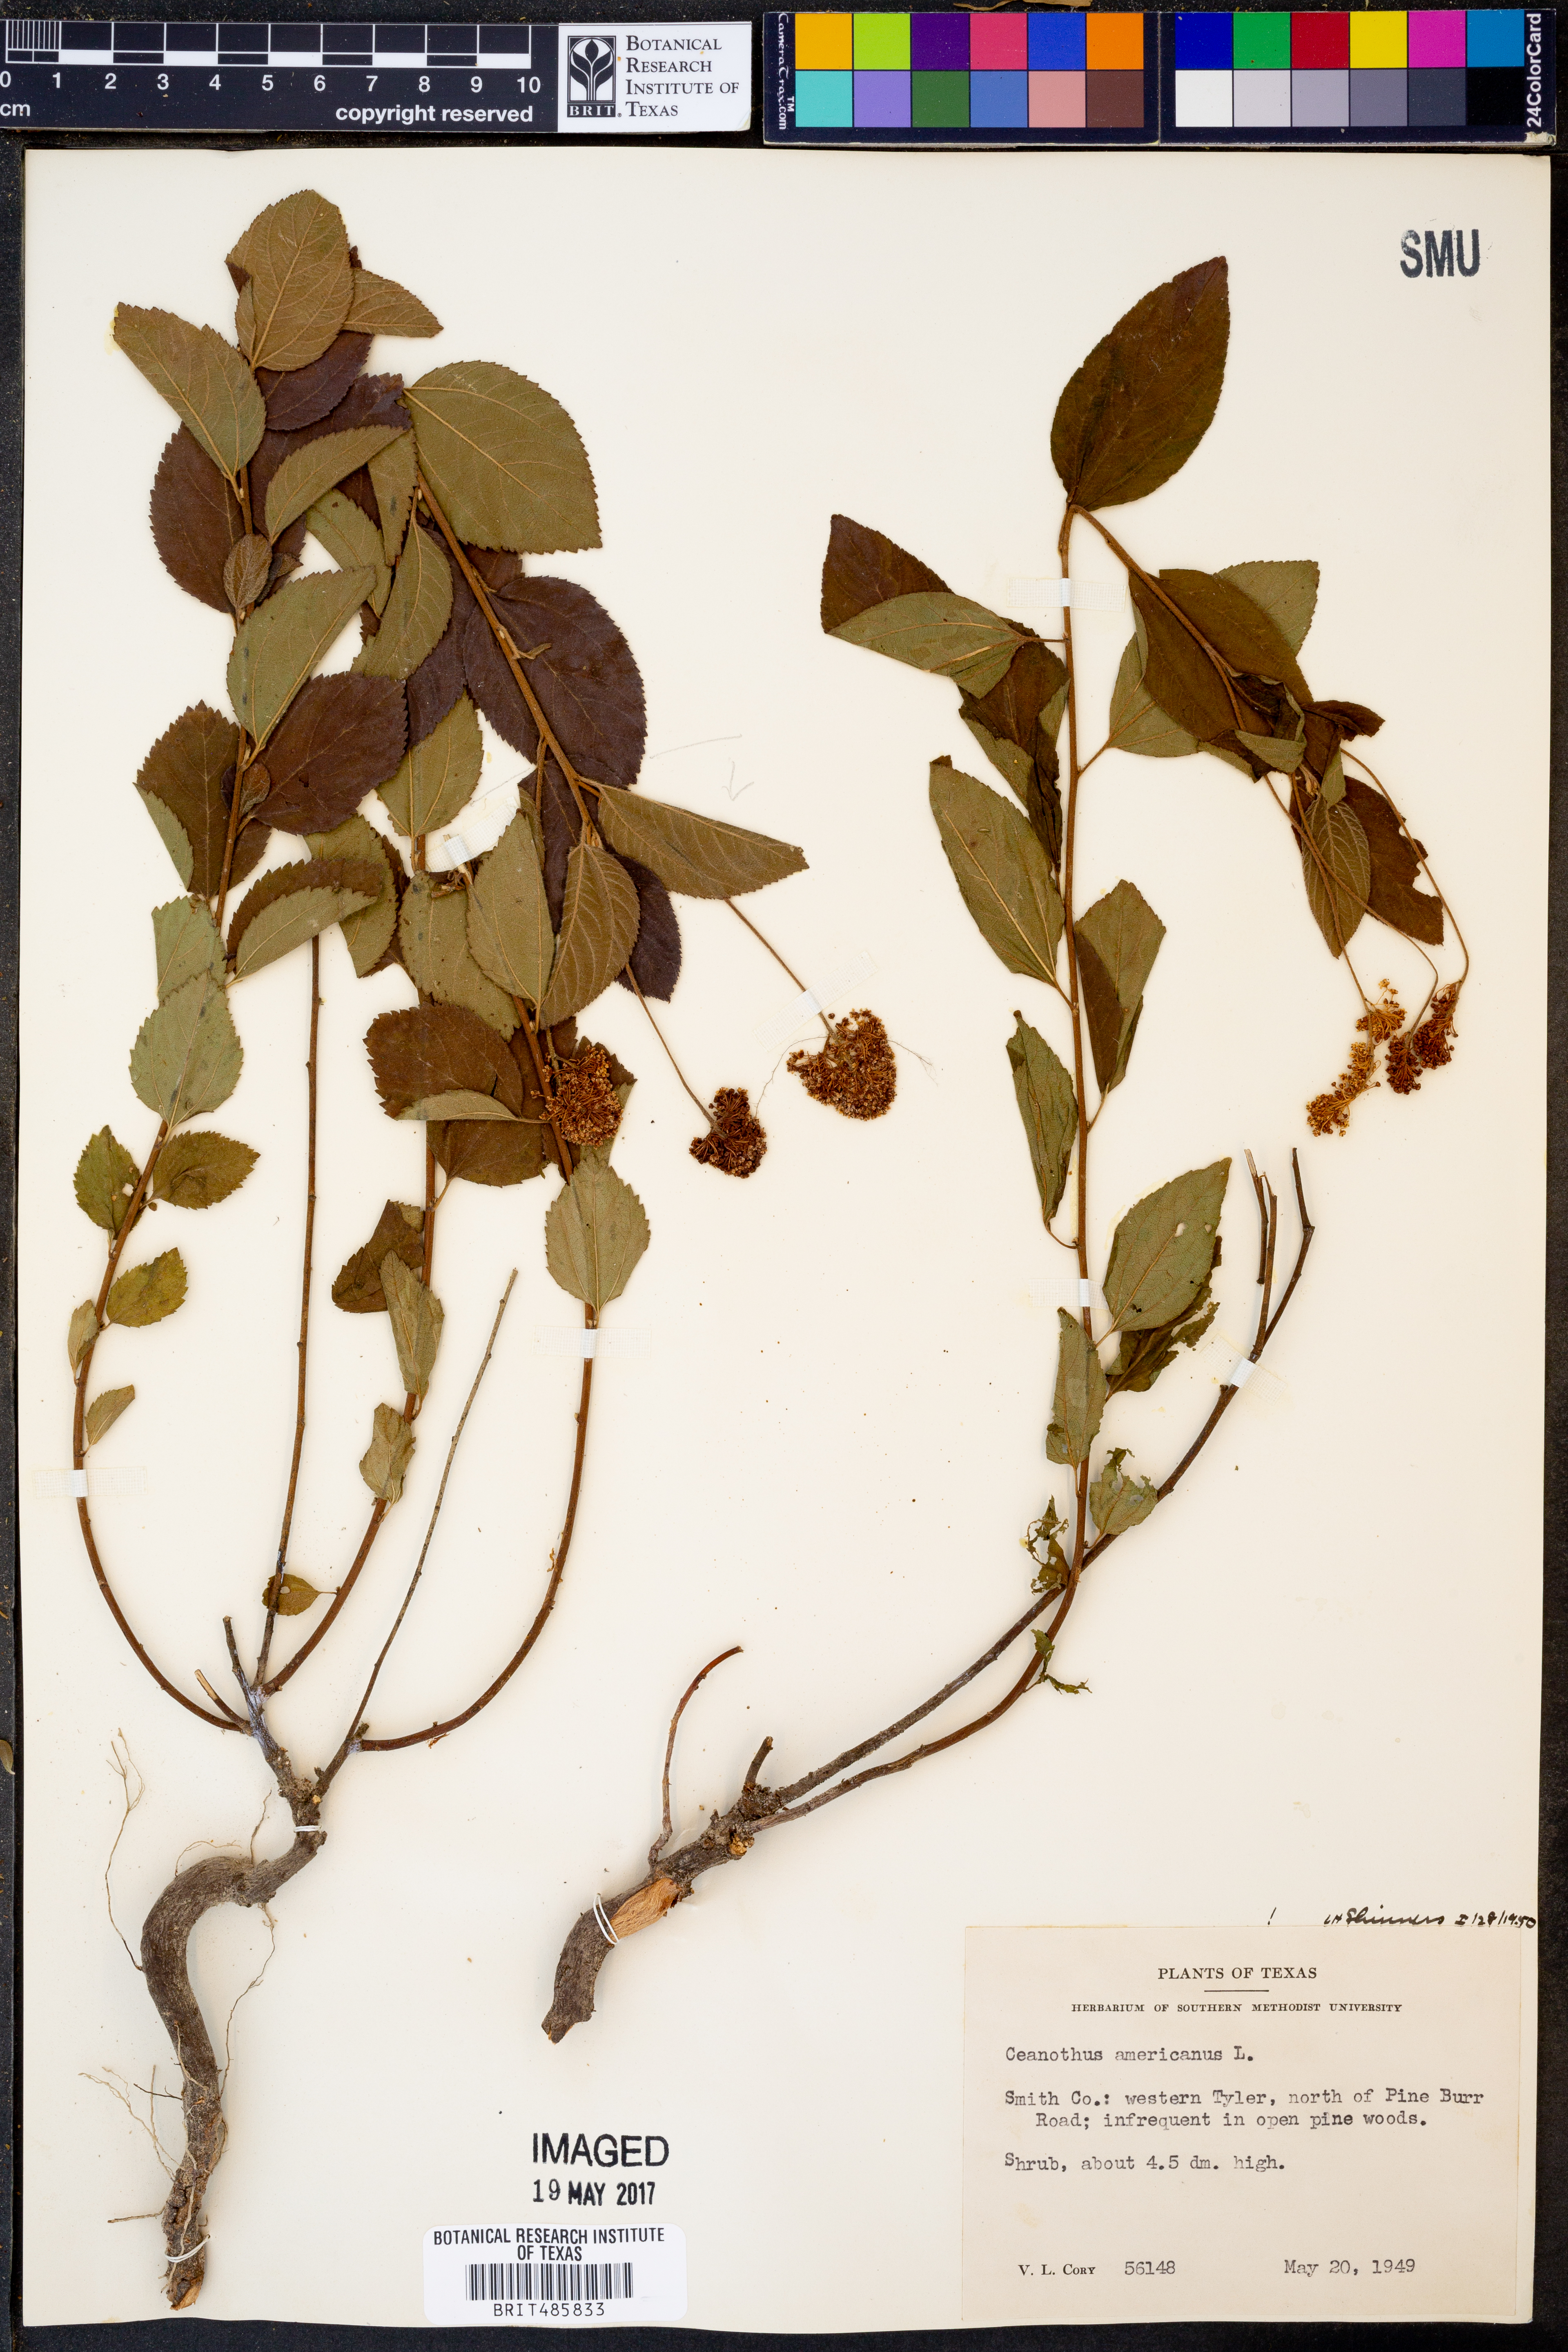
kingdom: Plantae
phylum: Tracheophyta
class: Magnoliopsida
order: Rosales
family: Rhamnaceae
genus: Ceanothus
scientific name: Ceanothus americanus
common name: Redroot
